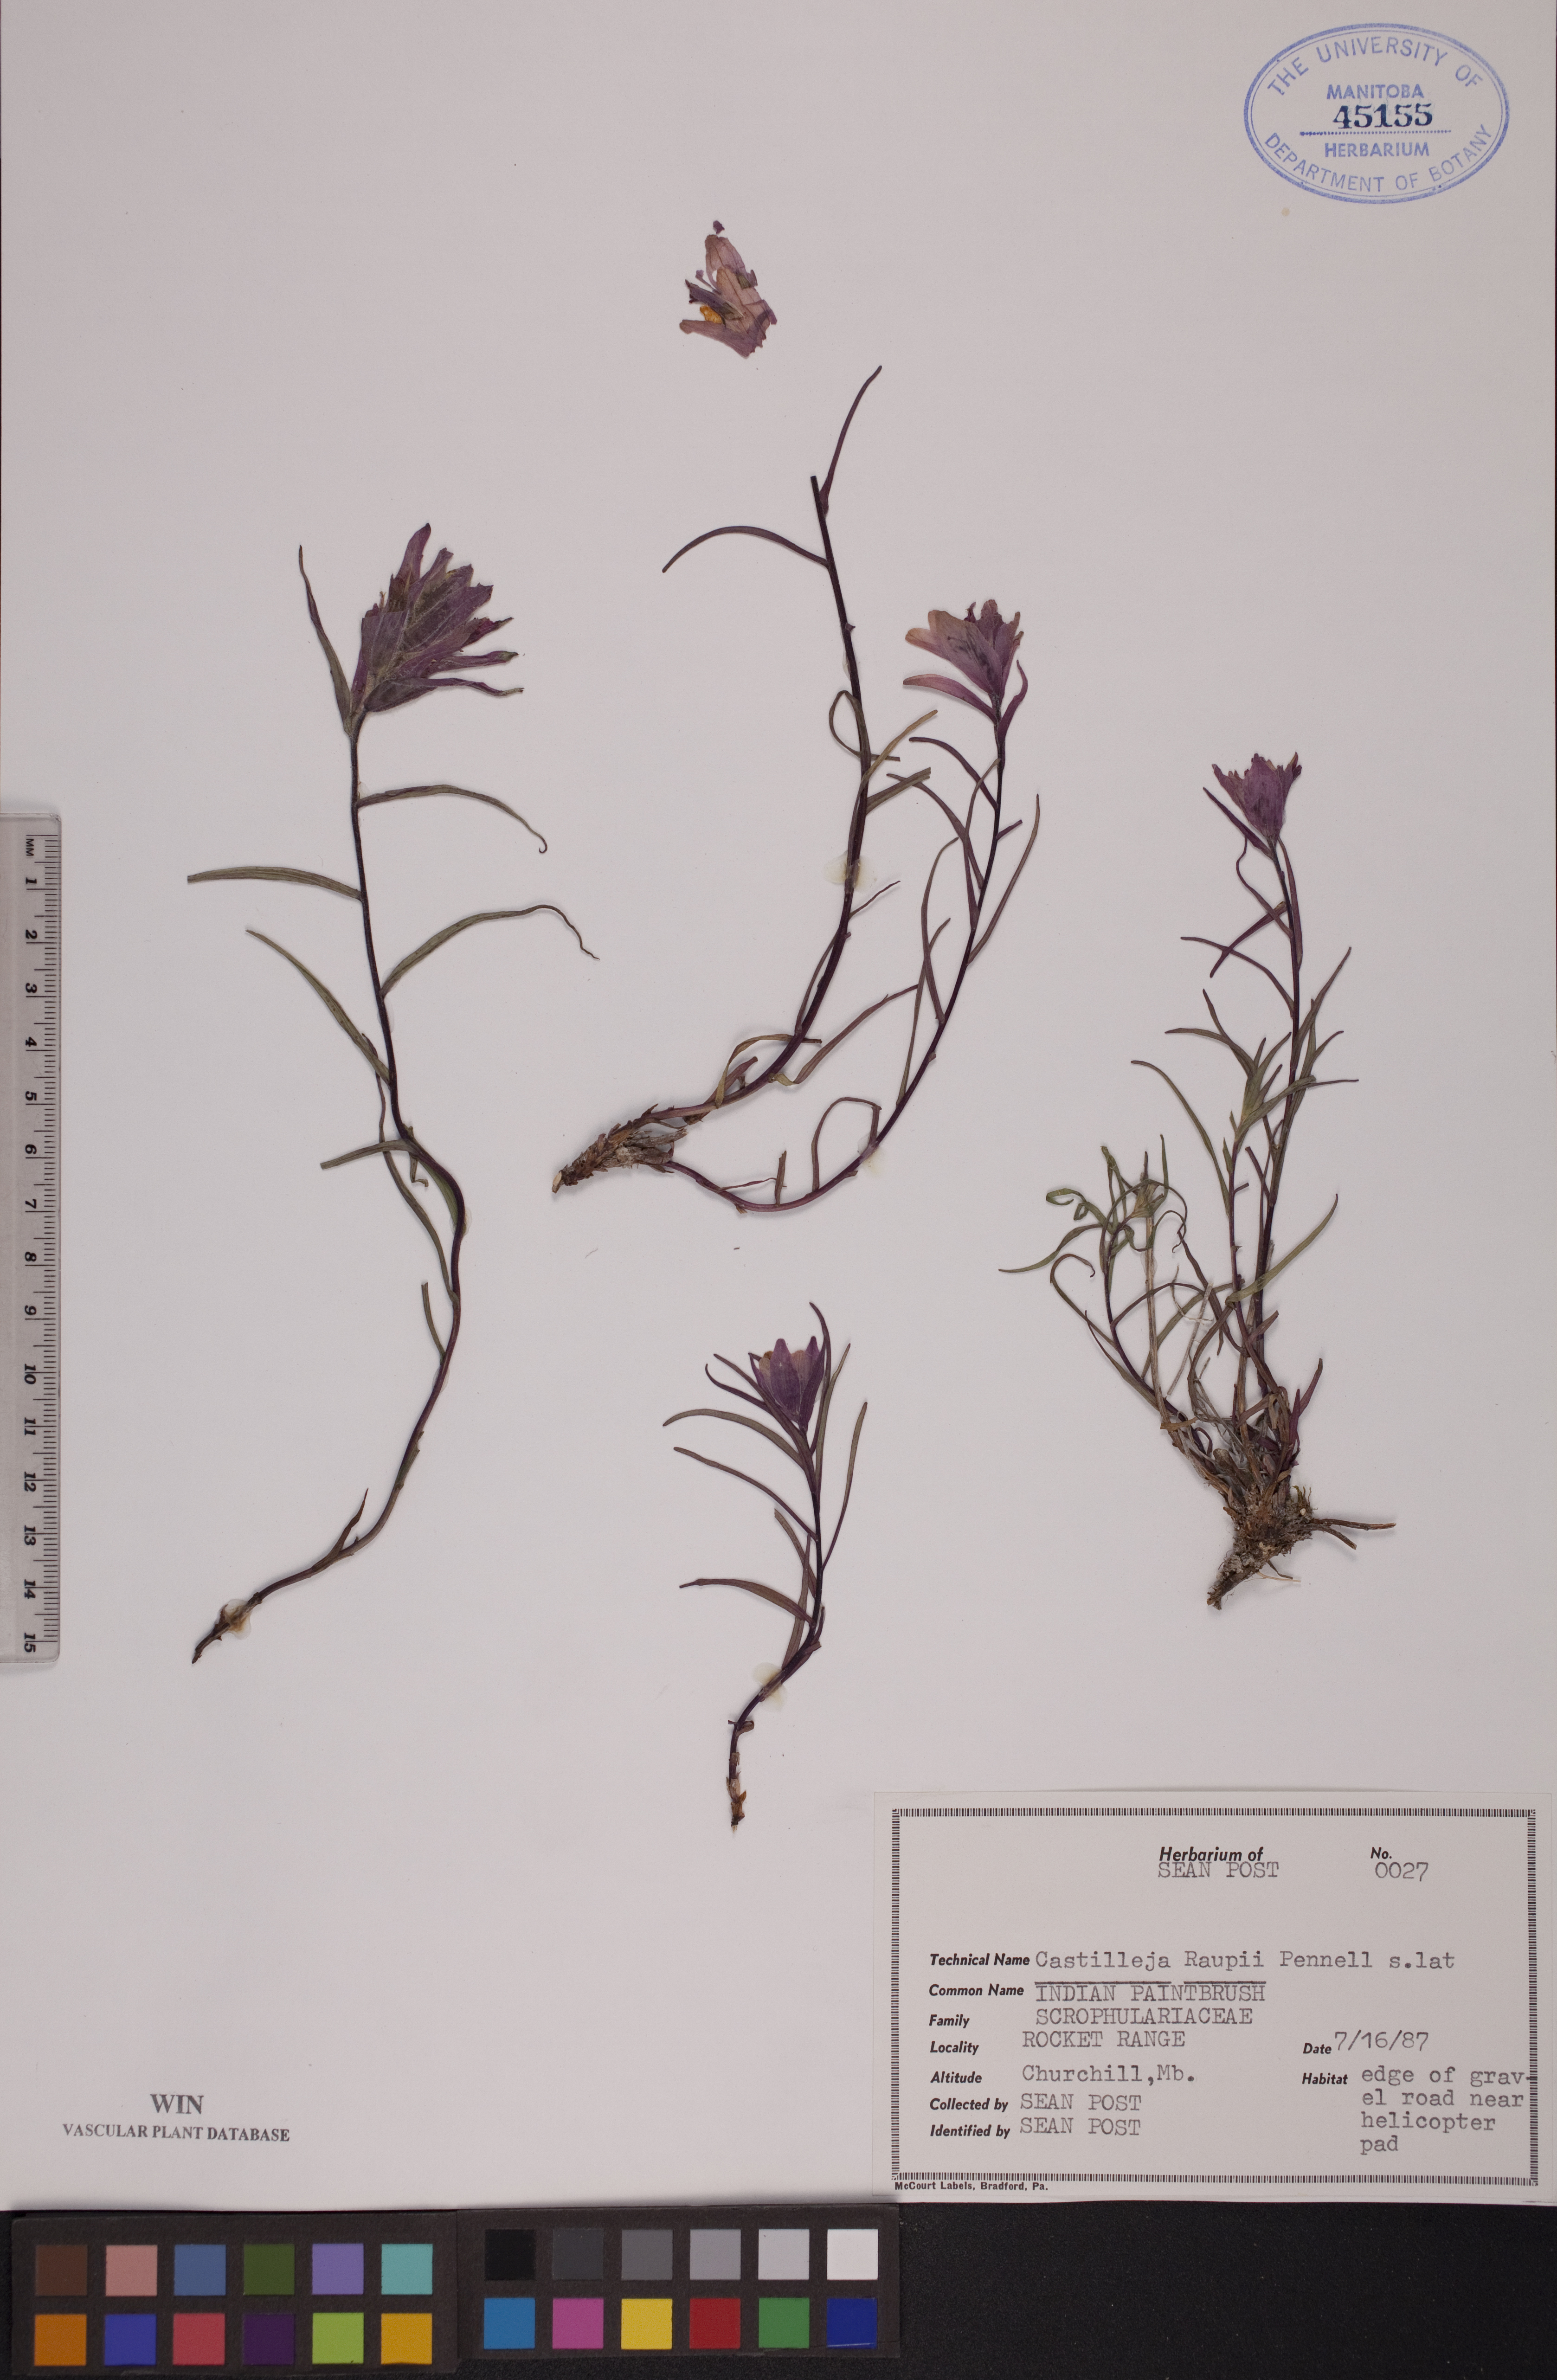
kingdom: Plantae
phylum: Tracheophyta
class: Magnoliopsida
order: Lamiales
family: Orobanchaceae
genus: Castilleja
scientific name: Castilleja raupii
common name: Raup's paintbrush
